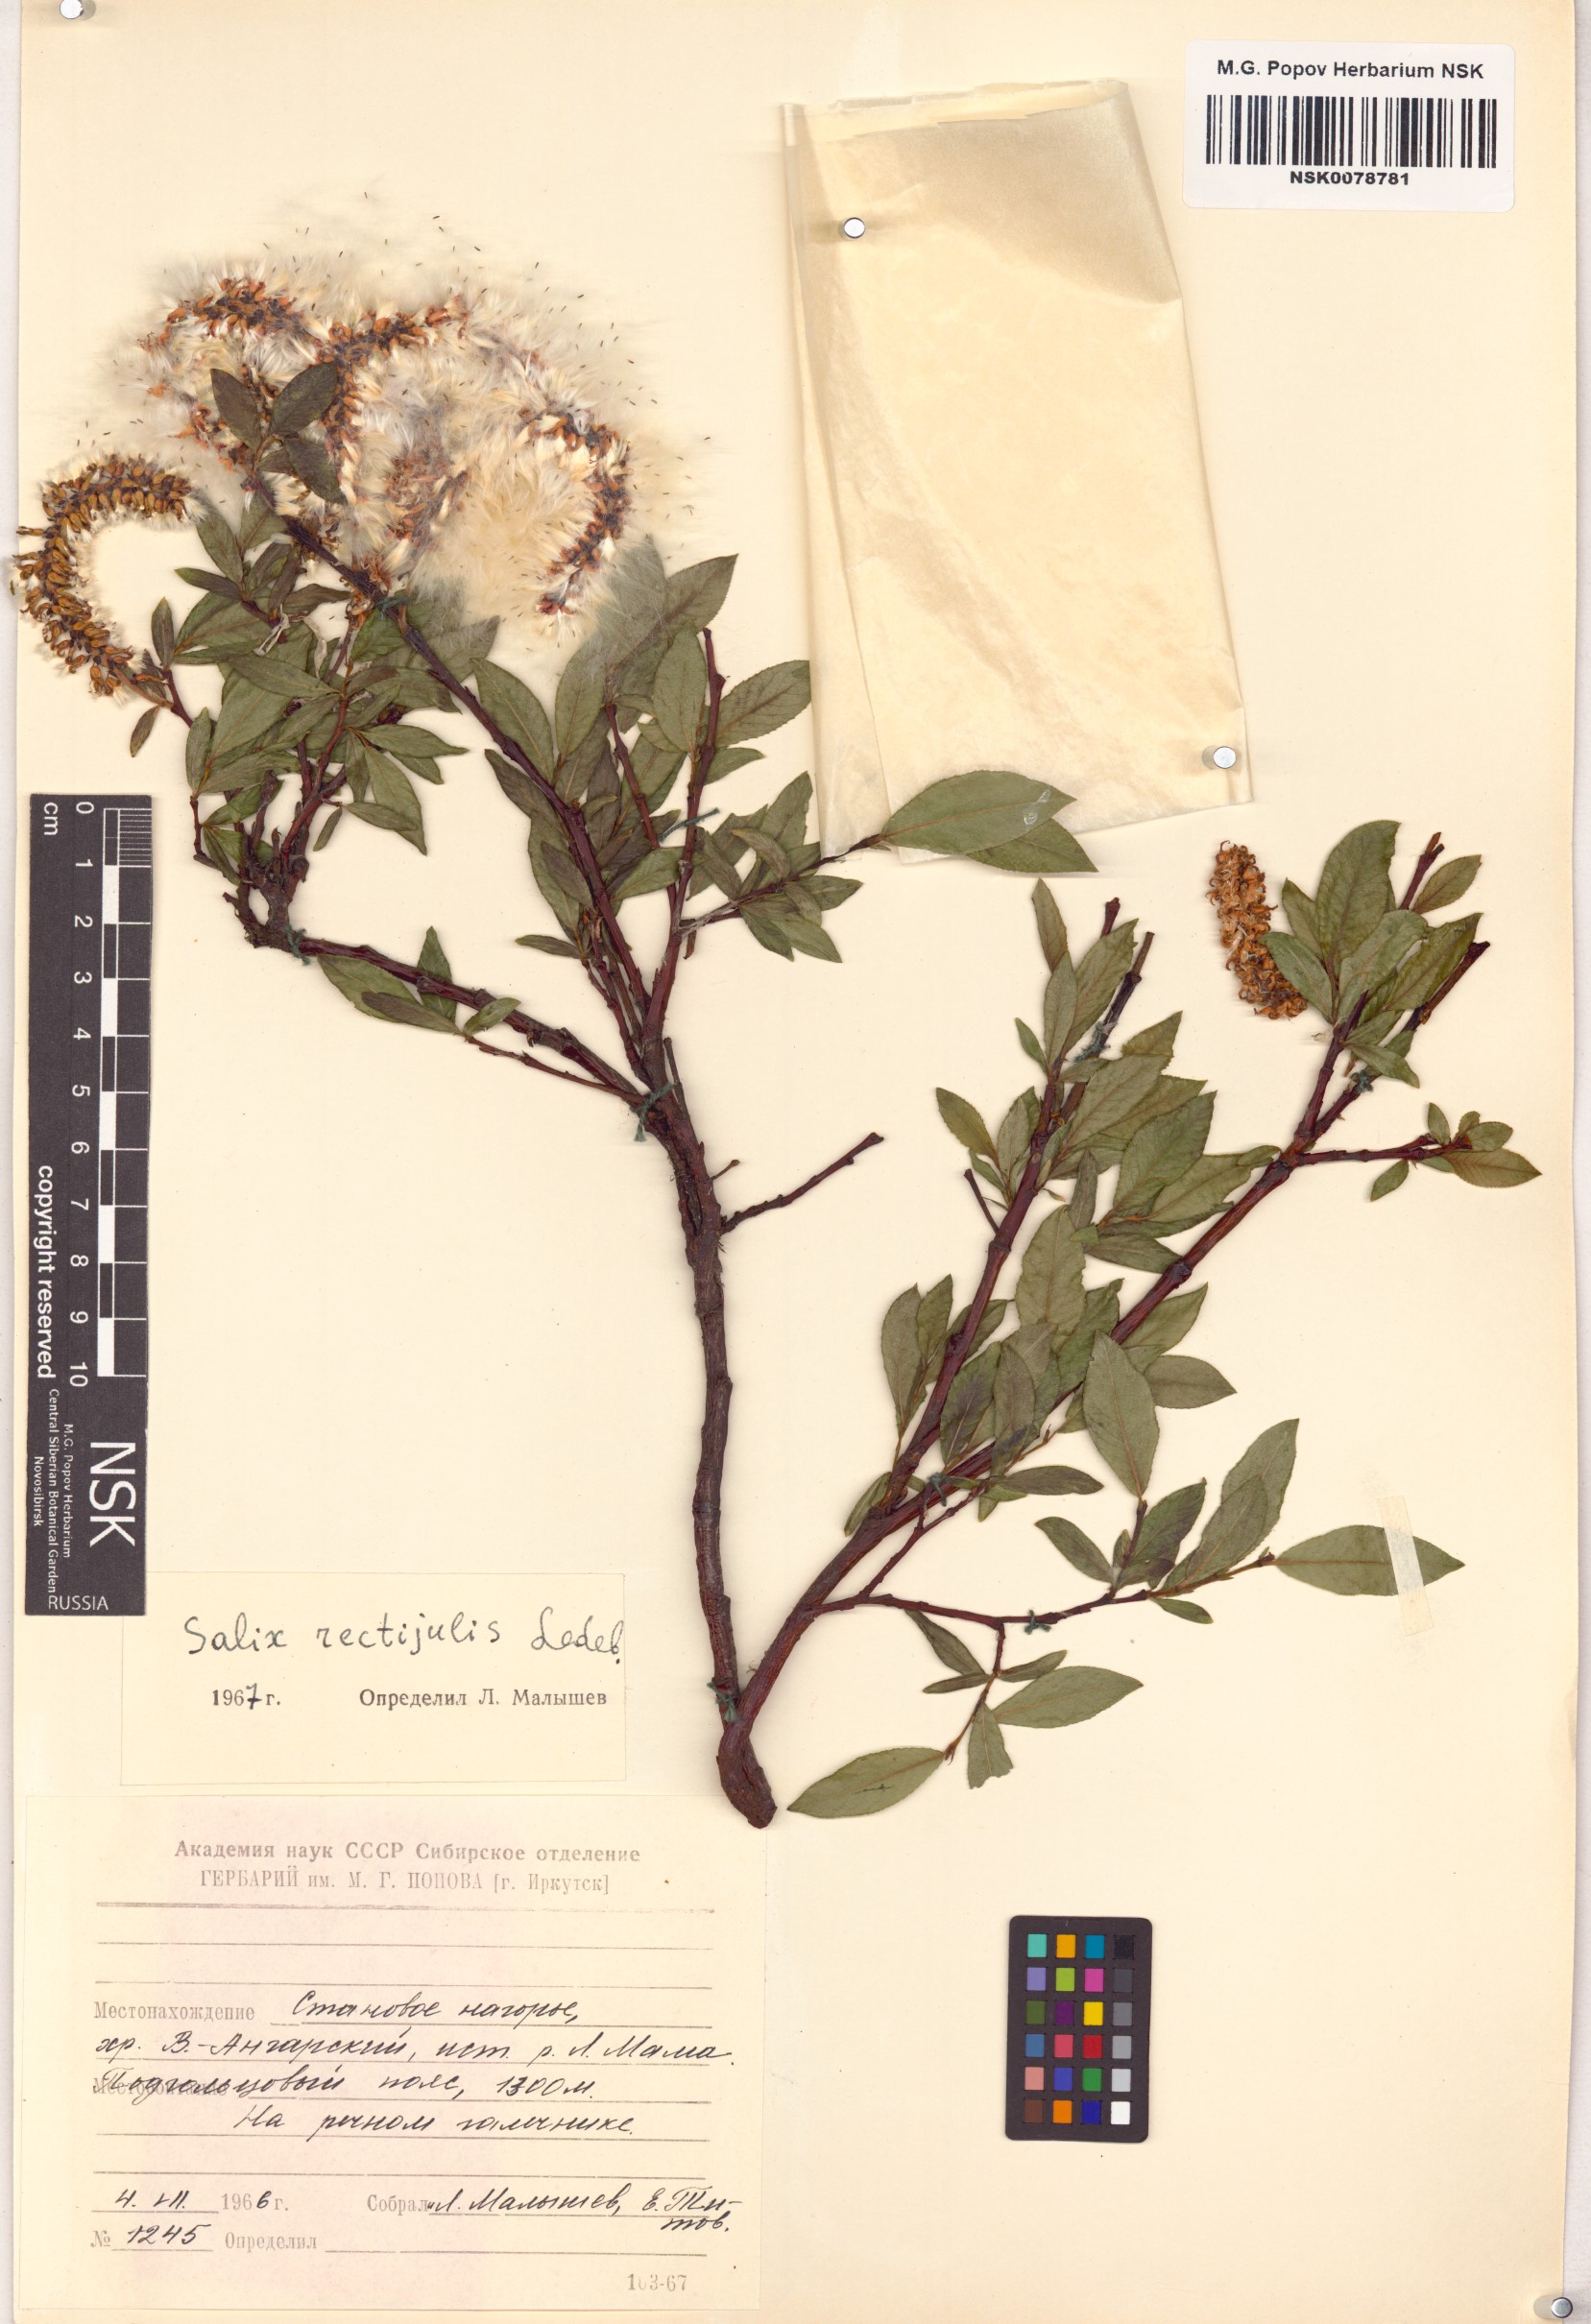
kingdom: Plantae
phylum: Tracheophyta
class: Magnoliopsida
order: Malpighiales
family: Salicaceae
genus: Salix
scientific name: Salix rectijulis
